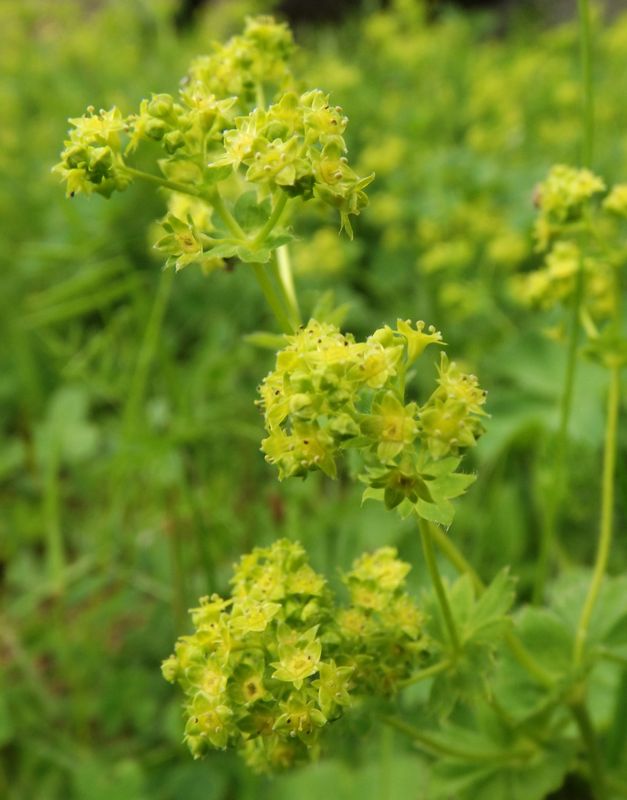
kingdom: Plantae
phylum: Tracheophyta
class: Magnoliopsida
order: Rosales
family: Rosaceae
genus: Alchemilla
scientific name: Alchemilla xanthochlora
